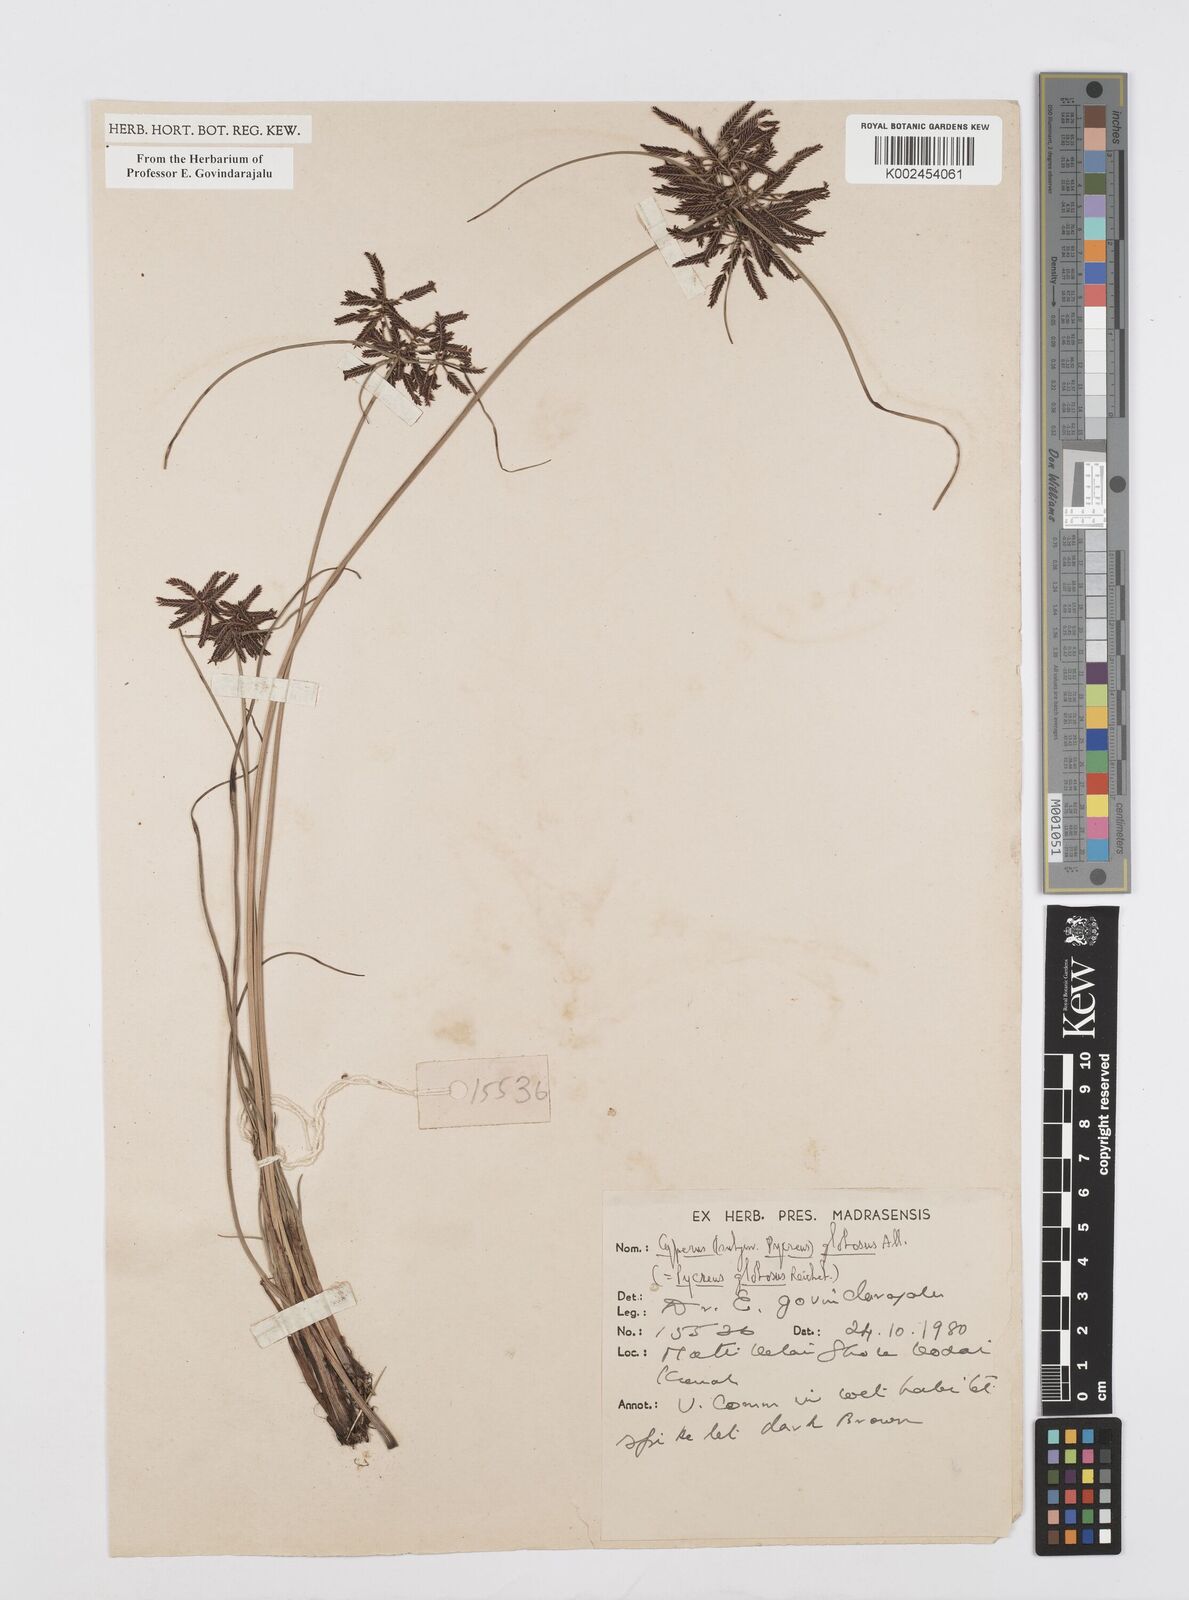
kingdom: Plantae
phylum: Tracheophyta
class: Liliopsida
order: Poales
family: Cyperaceae
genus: Cyperus
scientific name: Cyperus flavidus
